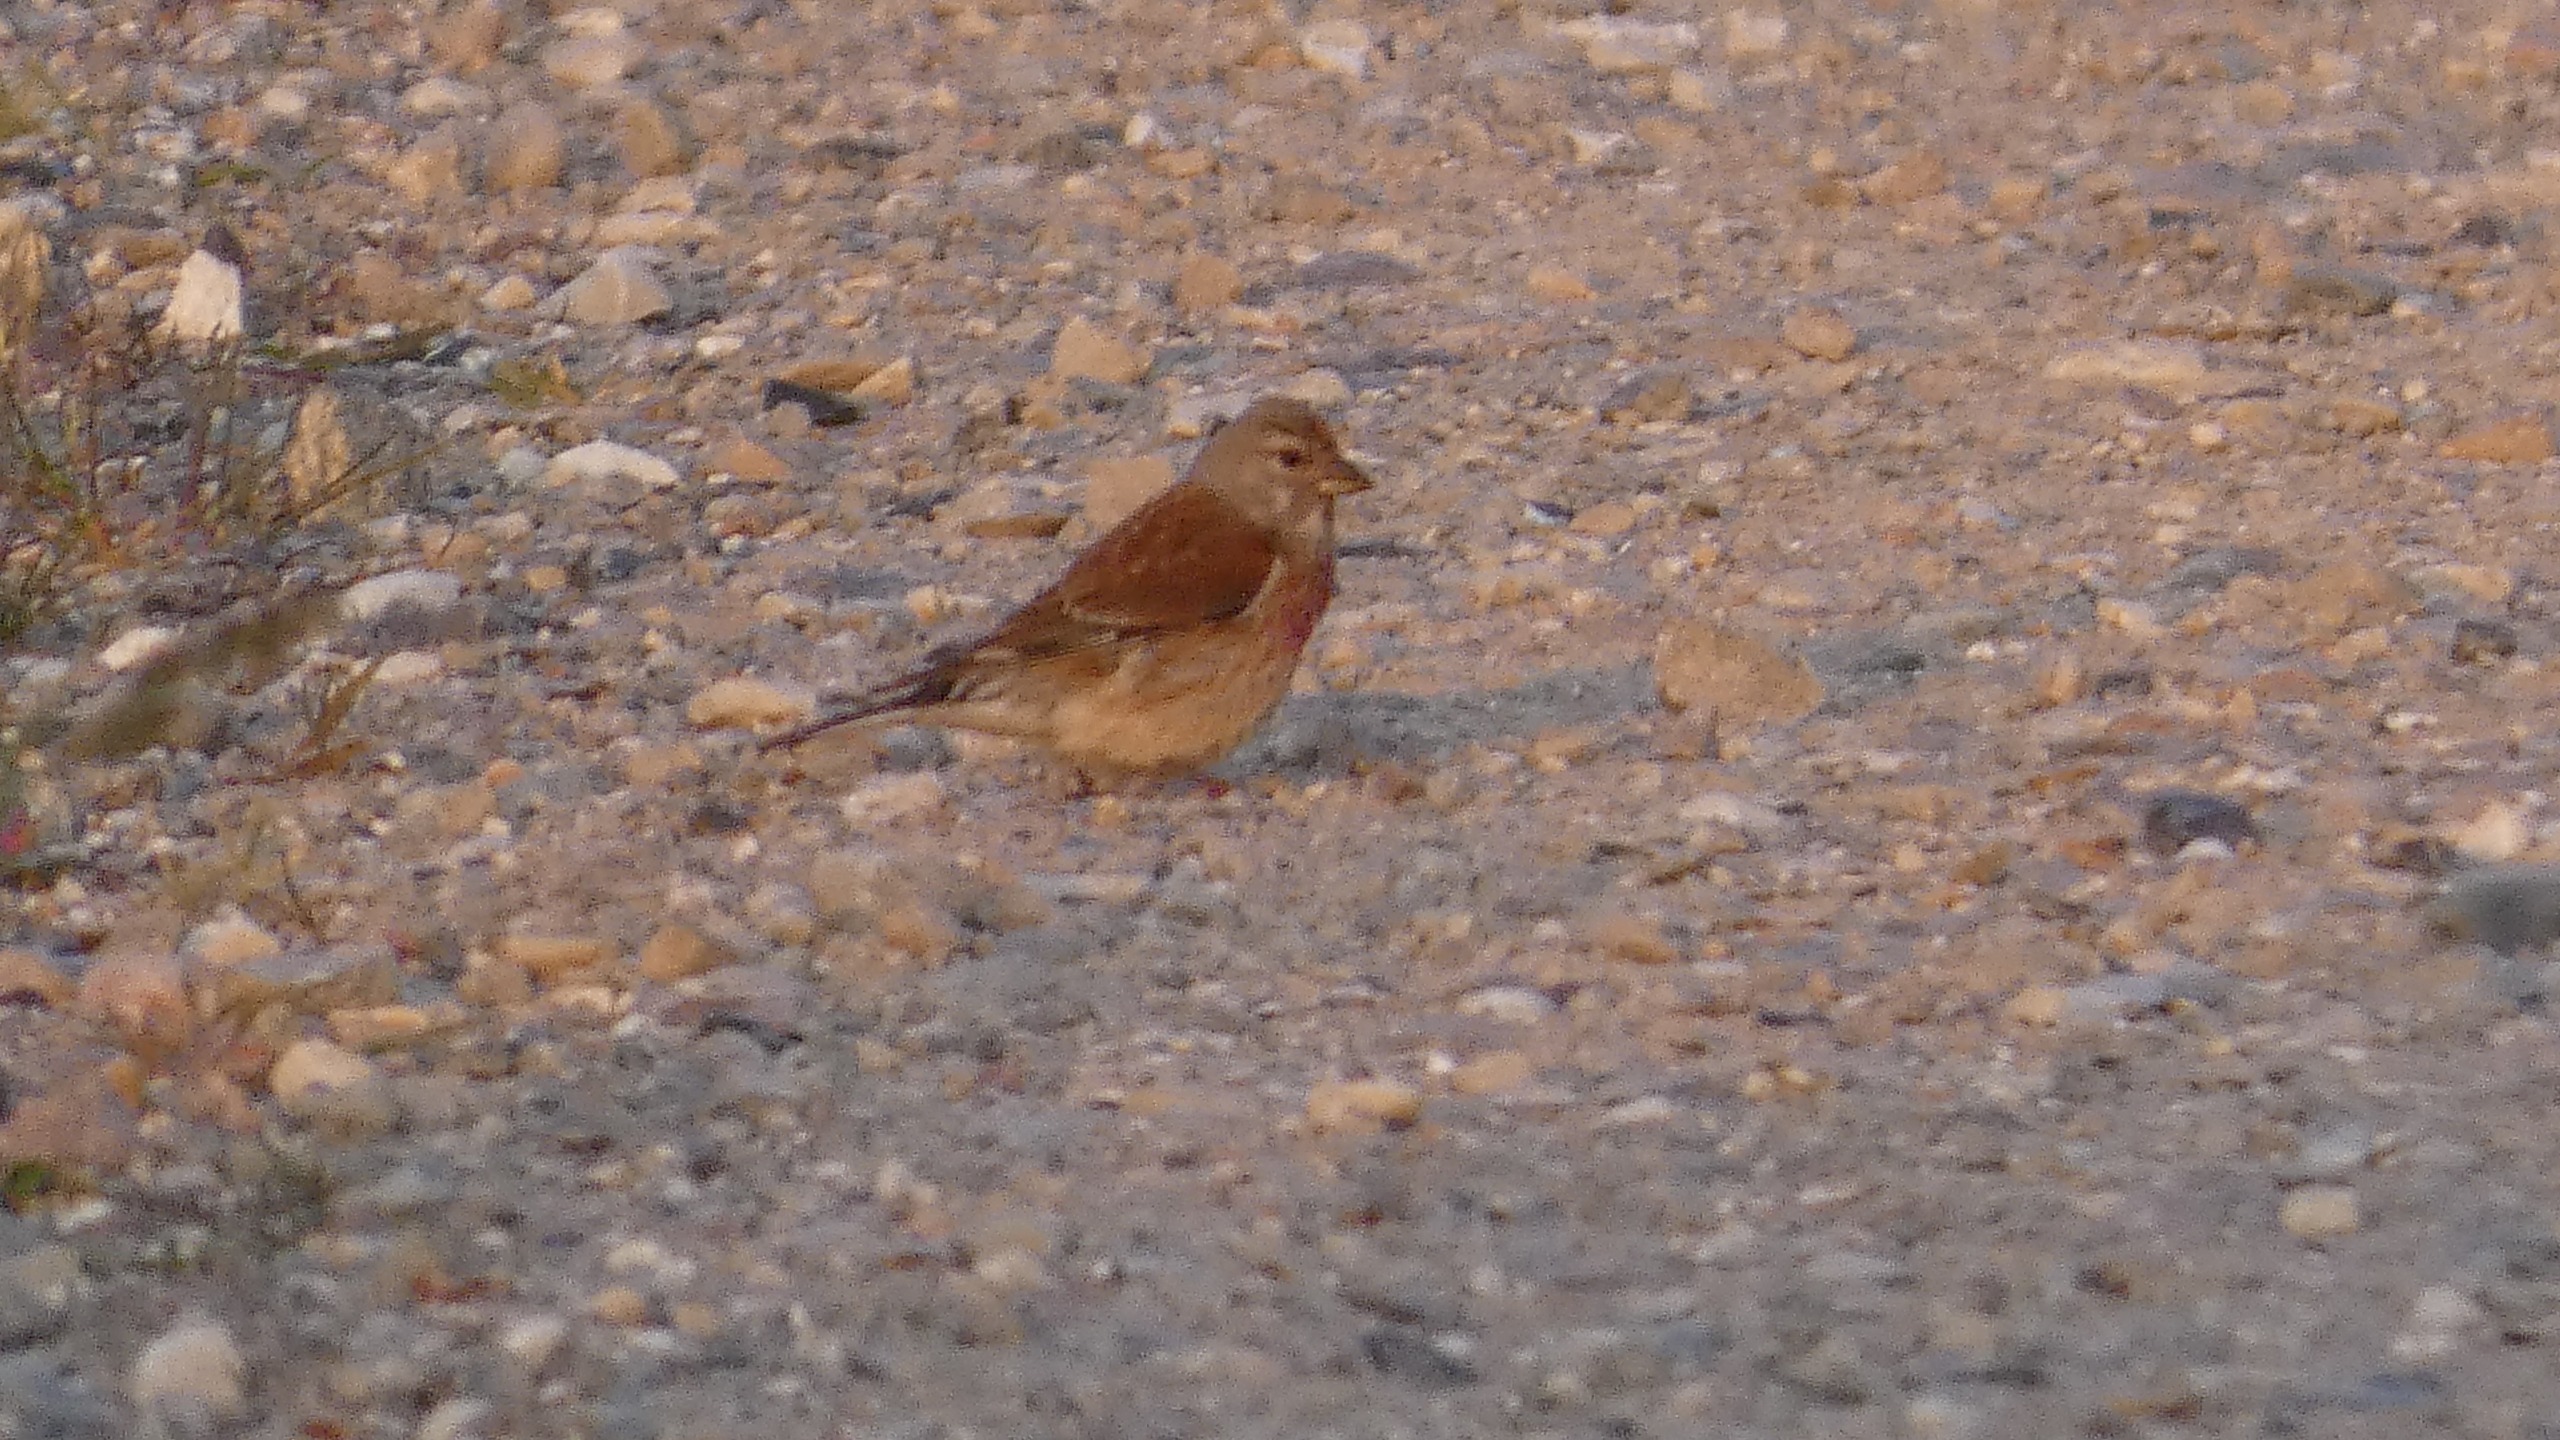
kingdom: Animalia
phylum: Chordata
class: Aves
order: Passeriformes
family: Fringillidae
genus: Linaria
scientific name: Linaria cannabina
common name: Tornirisk
